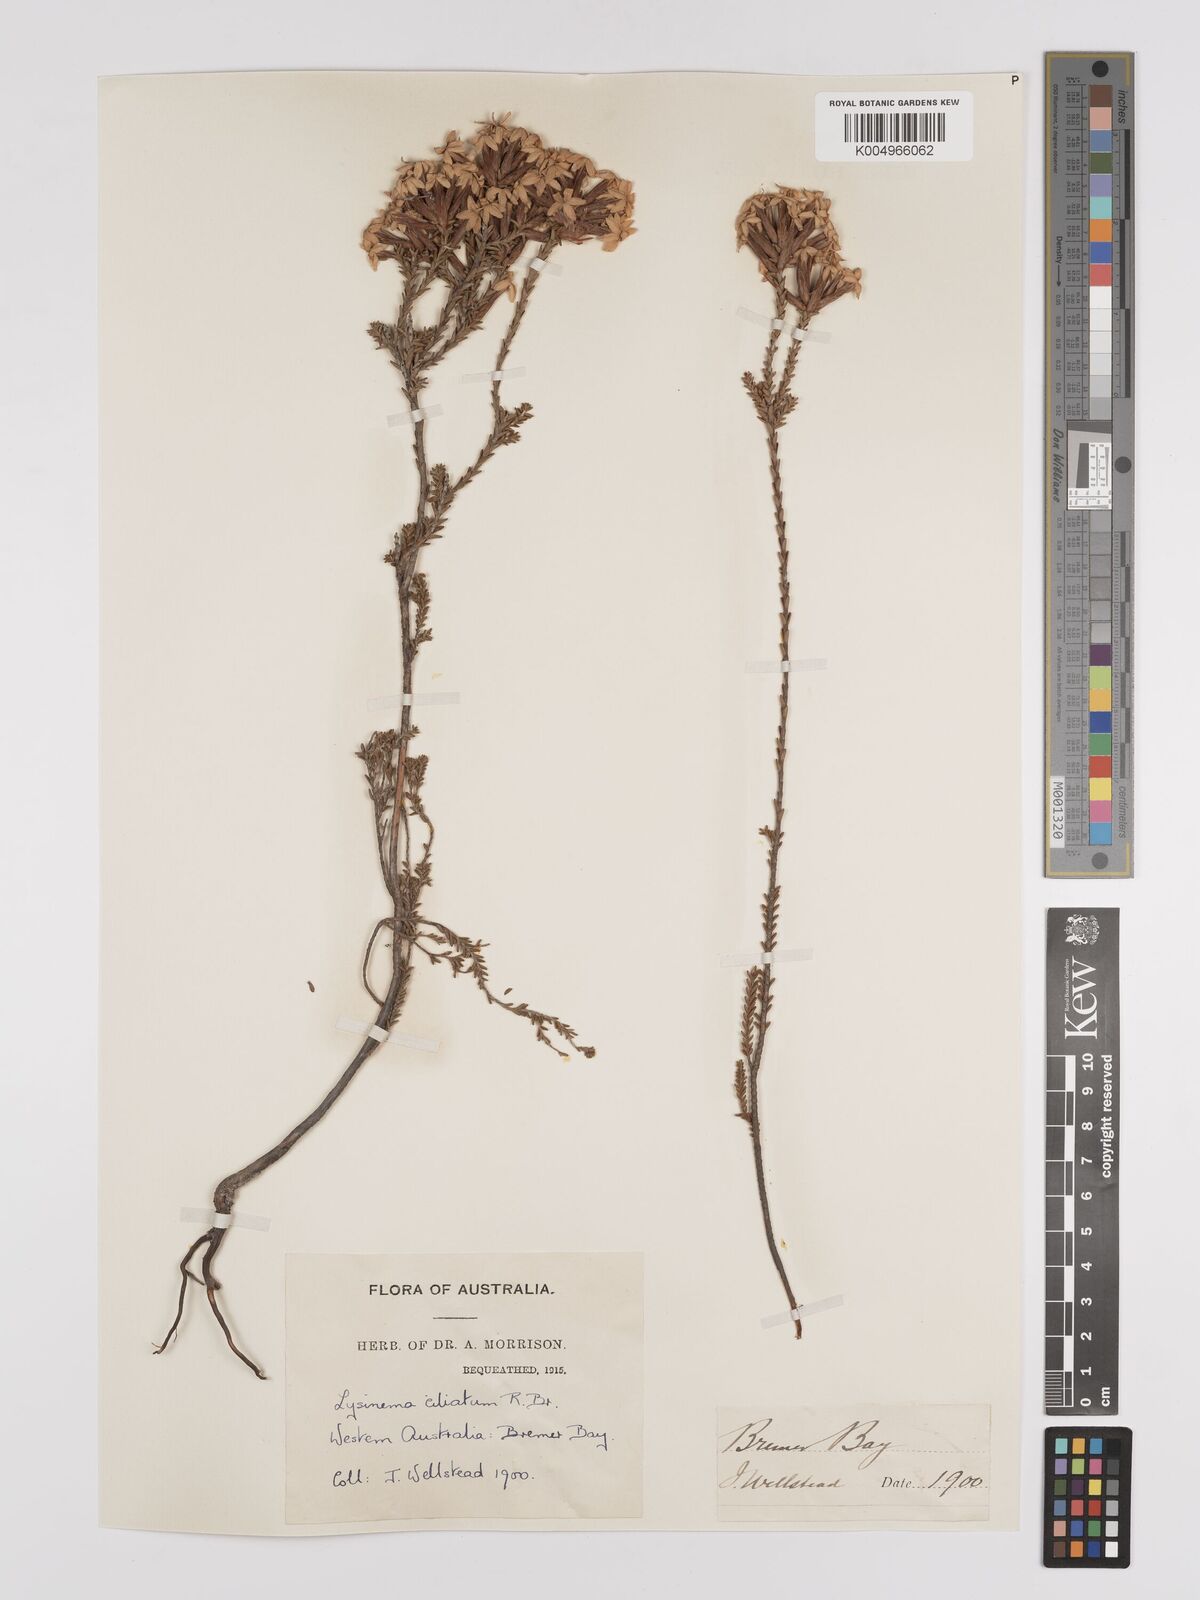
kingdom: Plantae
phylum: Tracheophyta
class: Magnoliopsida
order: Ericales
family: Ericaceae
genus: Lysinema
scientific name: Lysinema ciliatum
